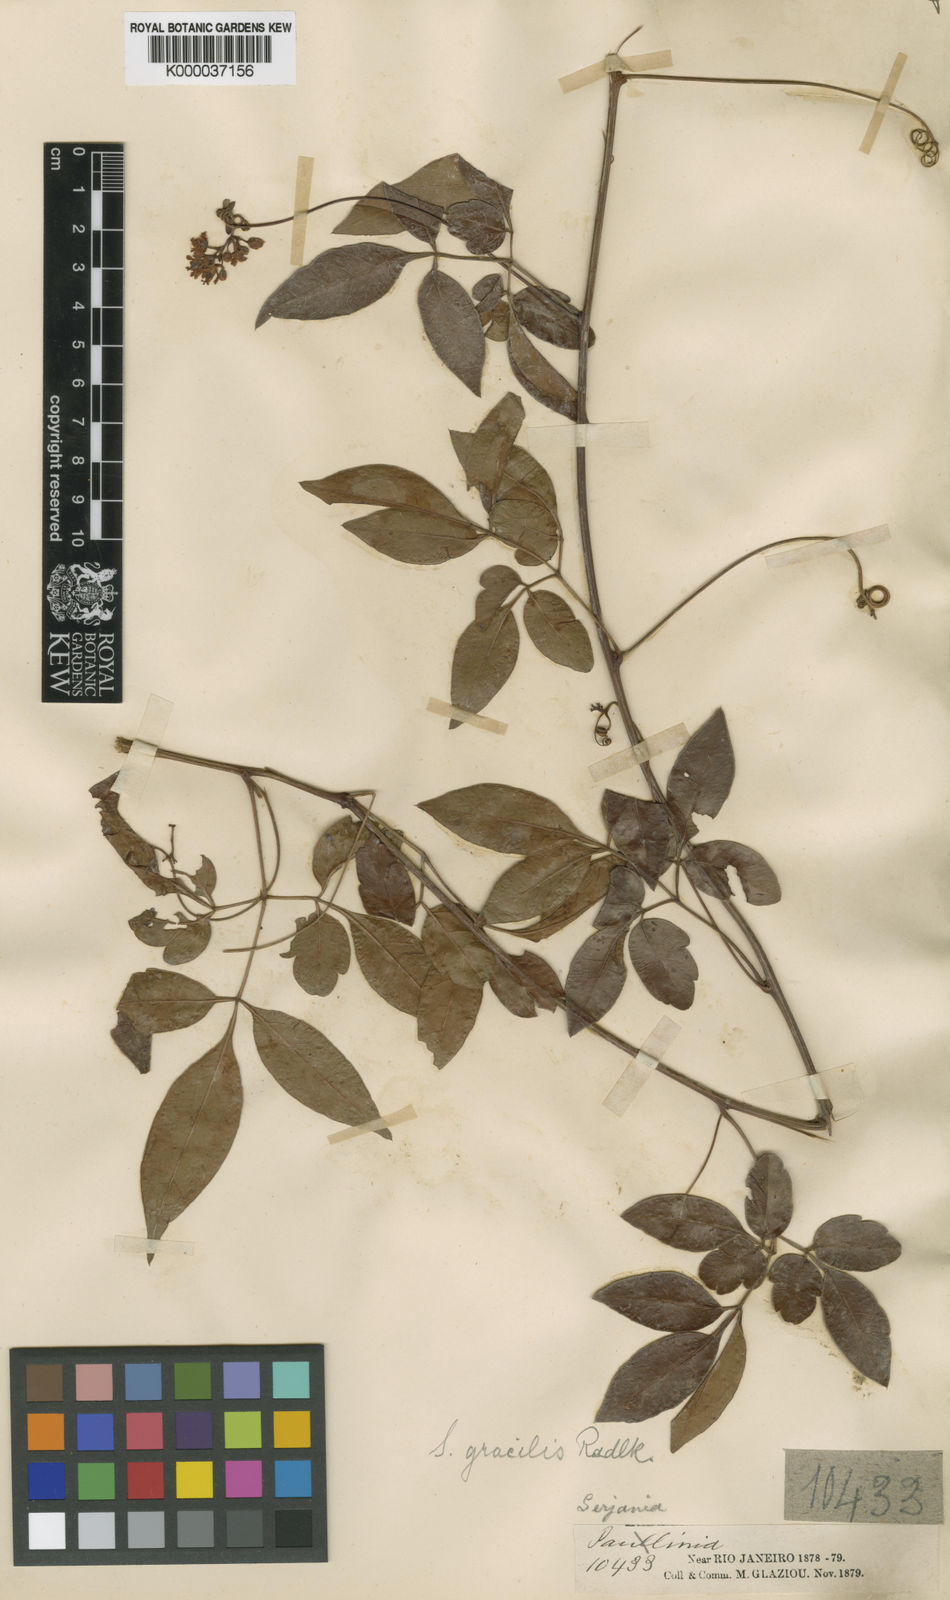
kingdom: Plantae
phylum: Tracheophyta
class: Magnoliopsida
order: Sapindales
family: Sapindaceae
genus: Serjania
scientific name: Serjania gracilis
